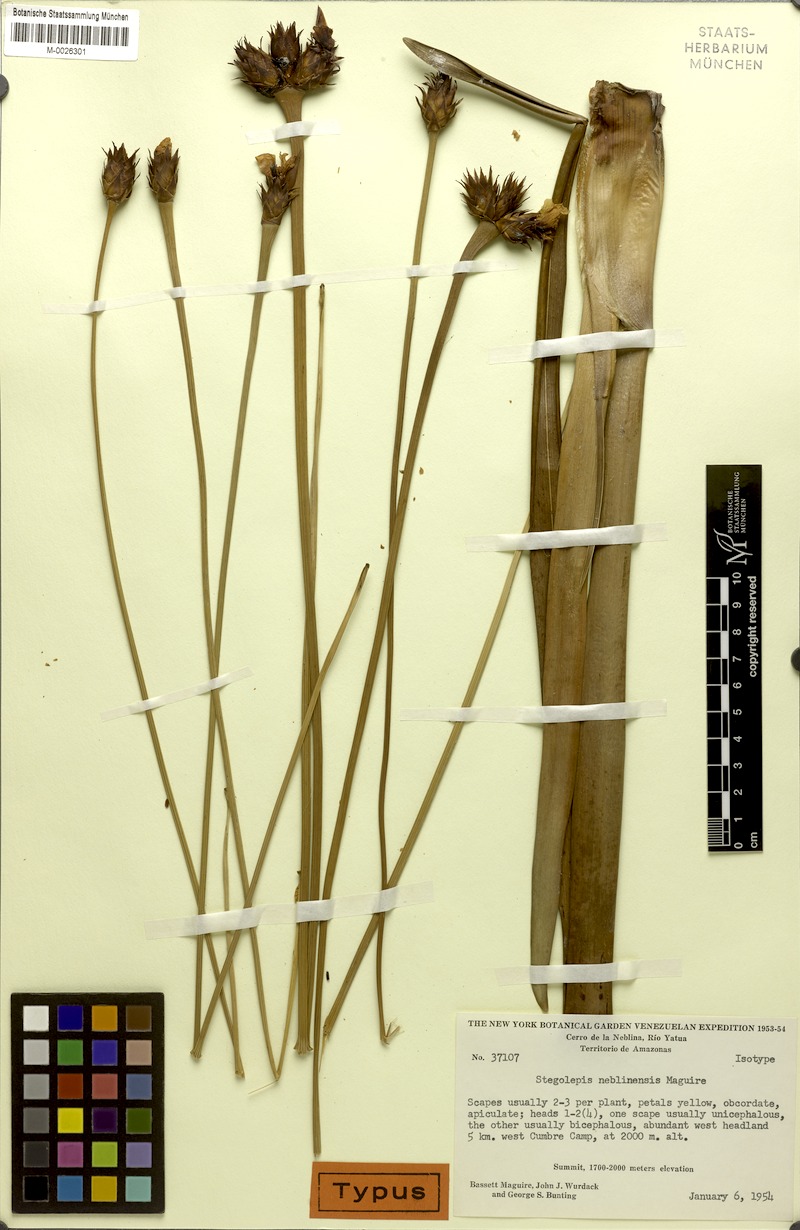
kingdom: Plantae
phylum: Tracheophyta
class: Liliopsida
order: Poales
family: Rapateaceae
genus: Stegolepis
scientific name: Stegolepis neblinensis
